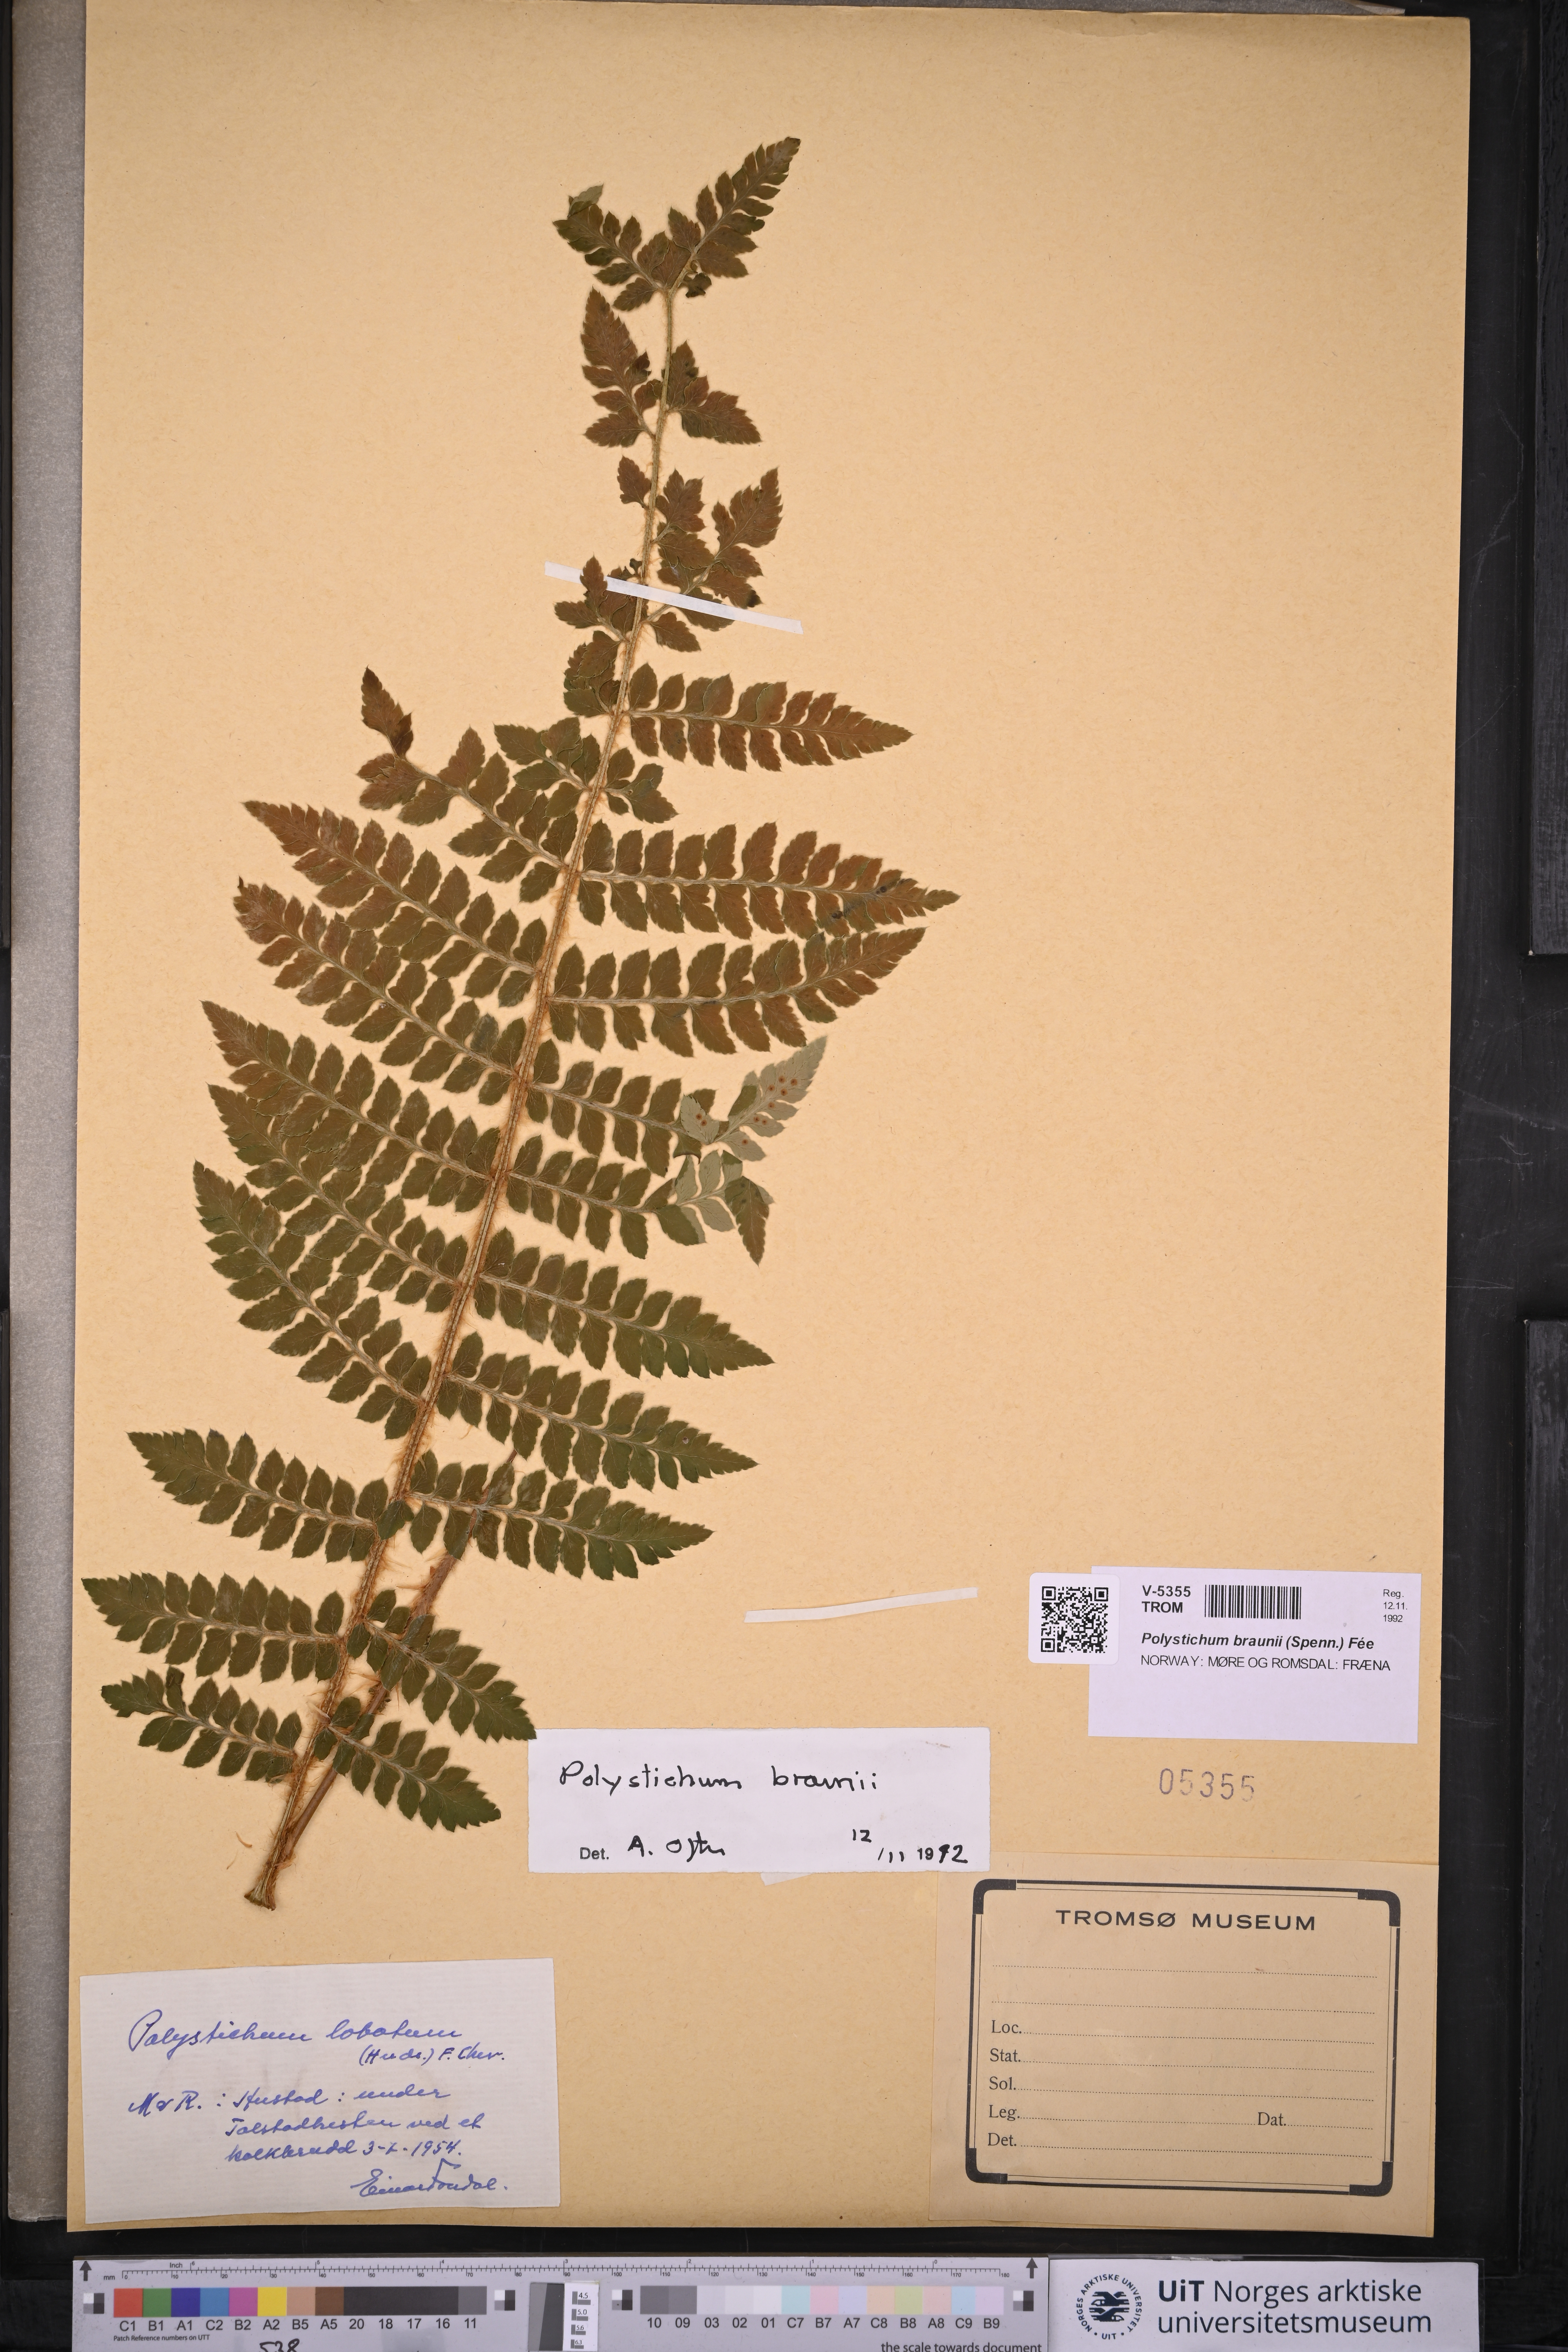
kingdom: Plantae
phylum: Tracheophyta
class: Polypodiopsida
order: Polypodiales
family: Dryopteridaceae
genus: Polystichum
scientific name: Polystichum braunii
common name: Braun's holly fern
